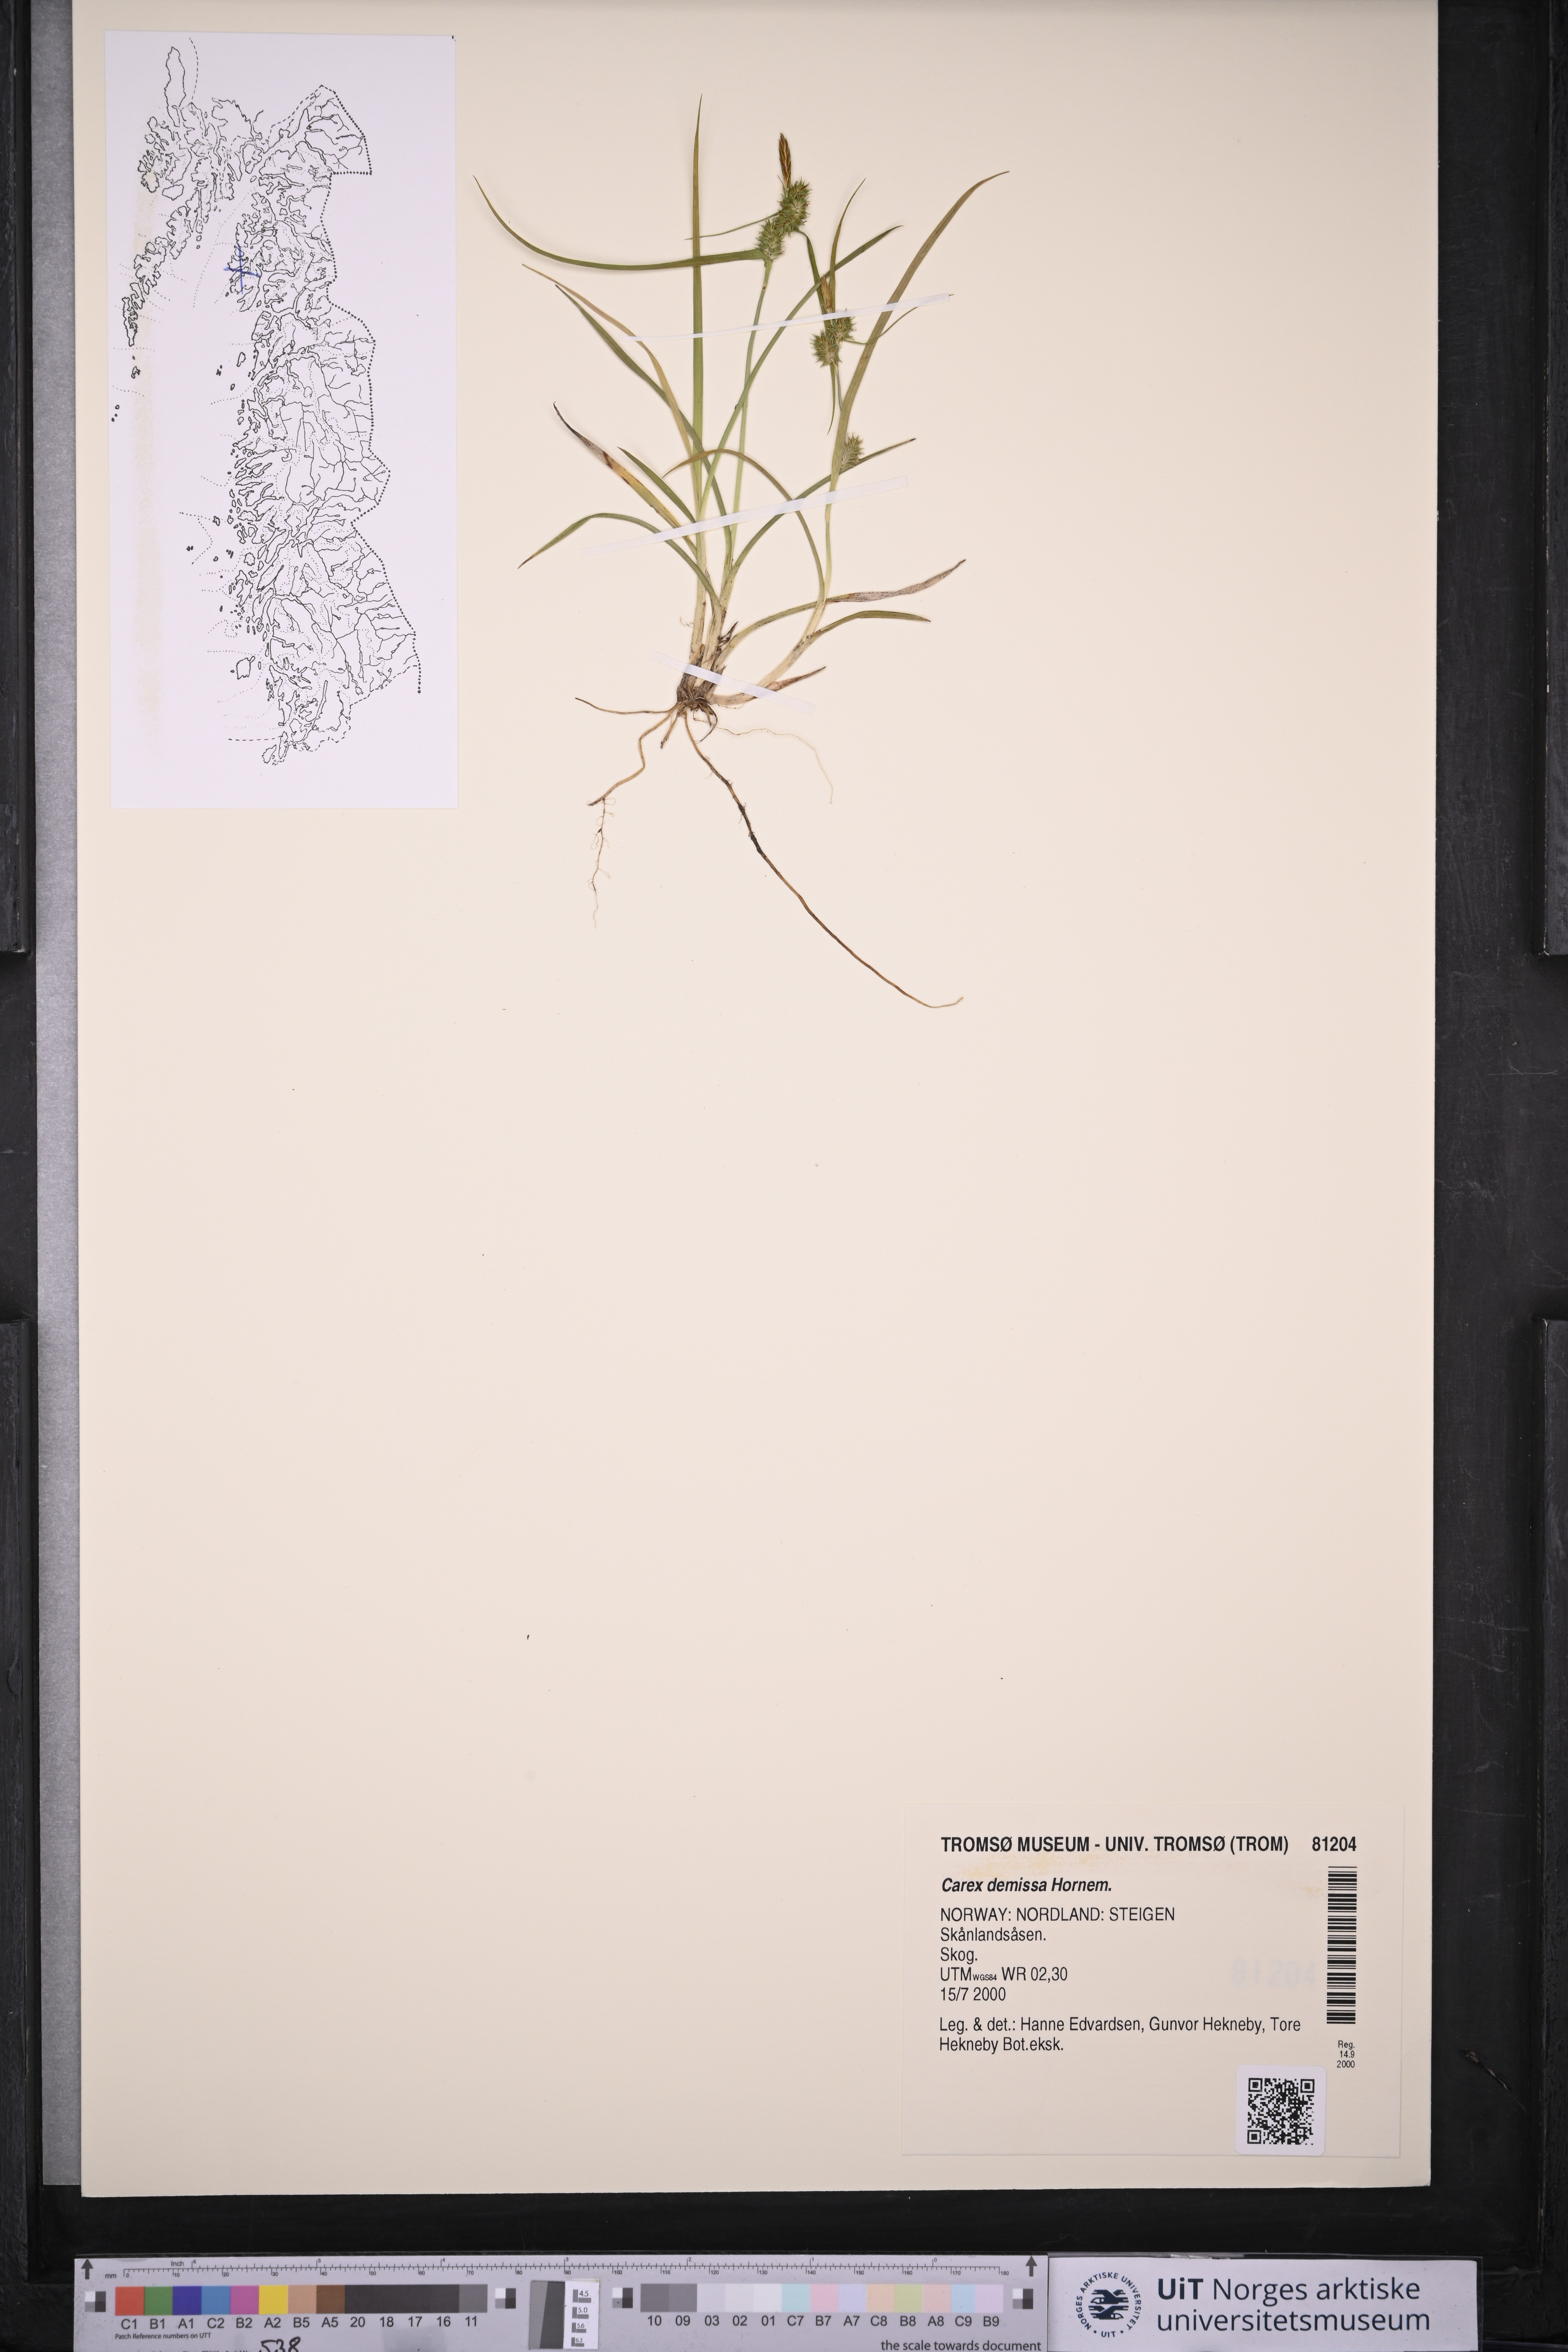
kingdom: Plantae
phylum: Tracheophyta
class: Liliopsida
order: Poales
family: Cyperaceae
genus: Carex
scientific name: Carex demissa
